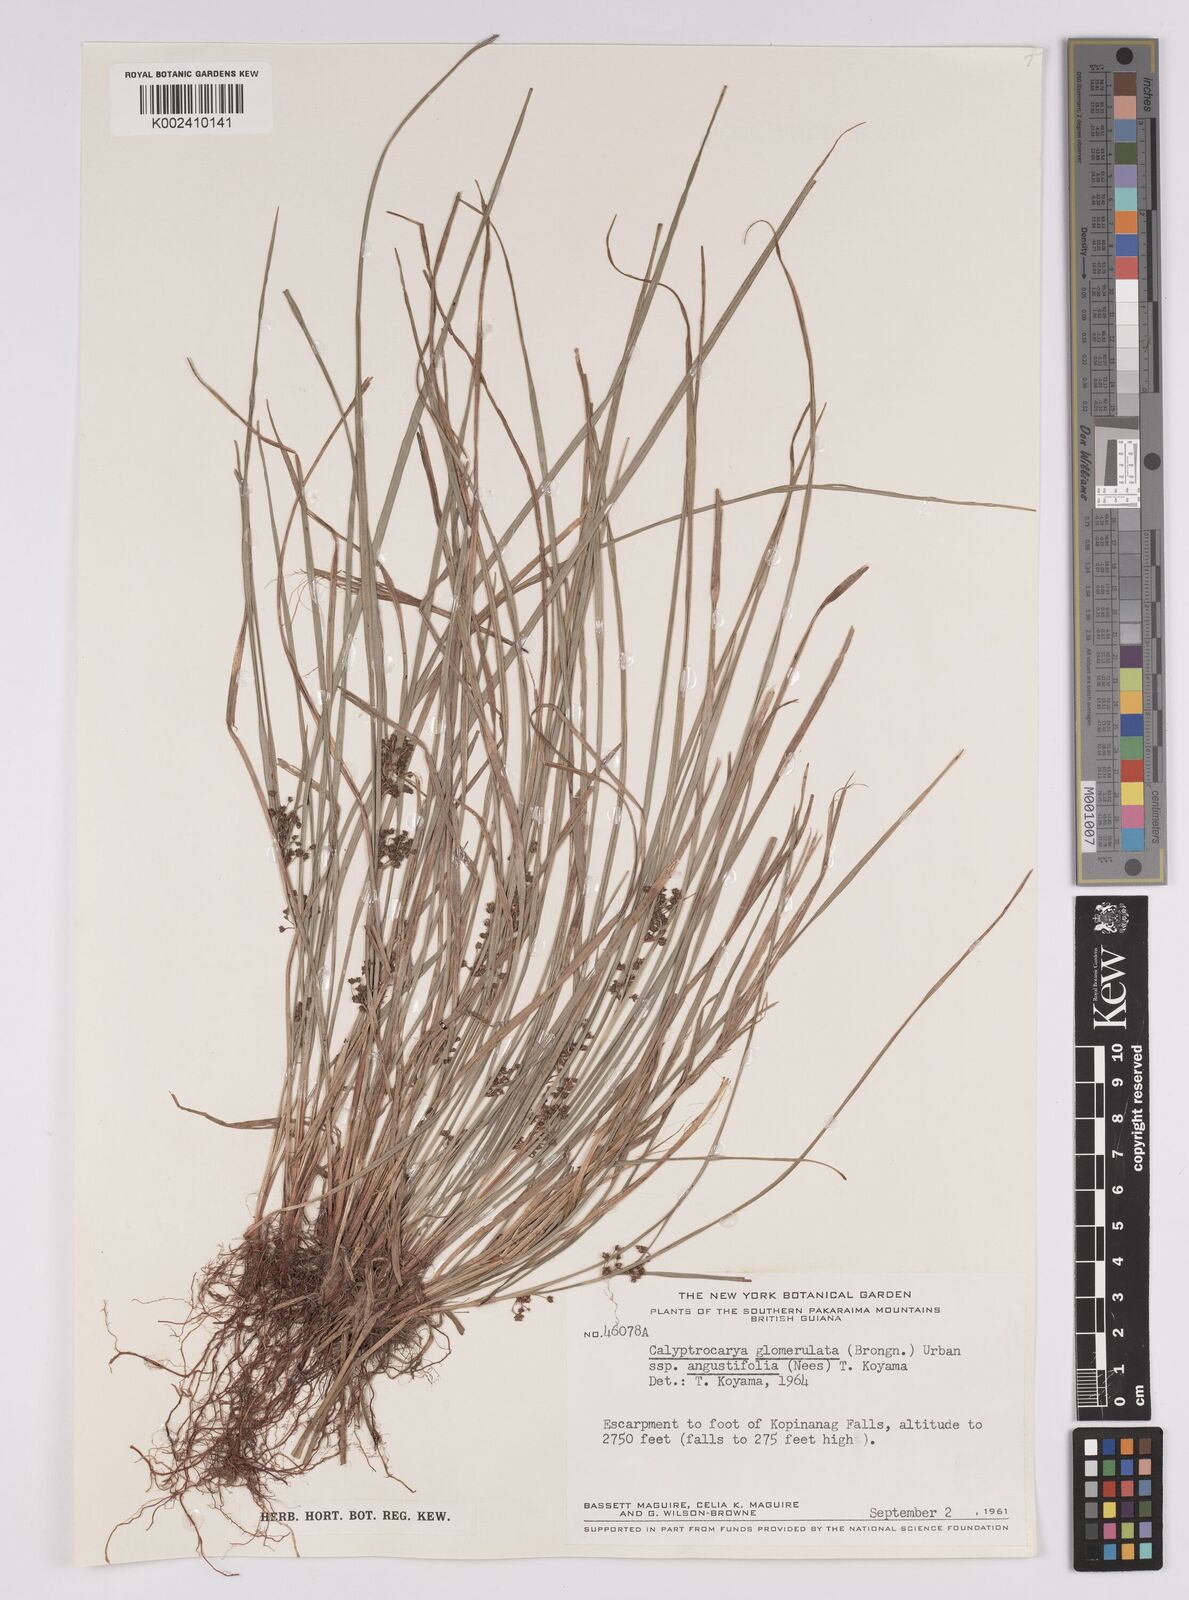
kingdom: Plantae
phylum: Tracheophyta
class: Liliopsida
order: Poales
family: Cyperaceae
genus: Calyptrocarya
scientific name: Calyptrocarya glomerulata
